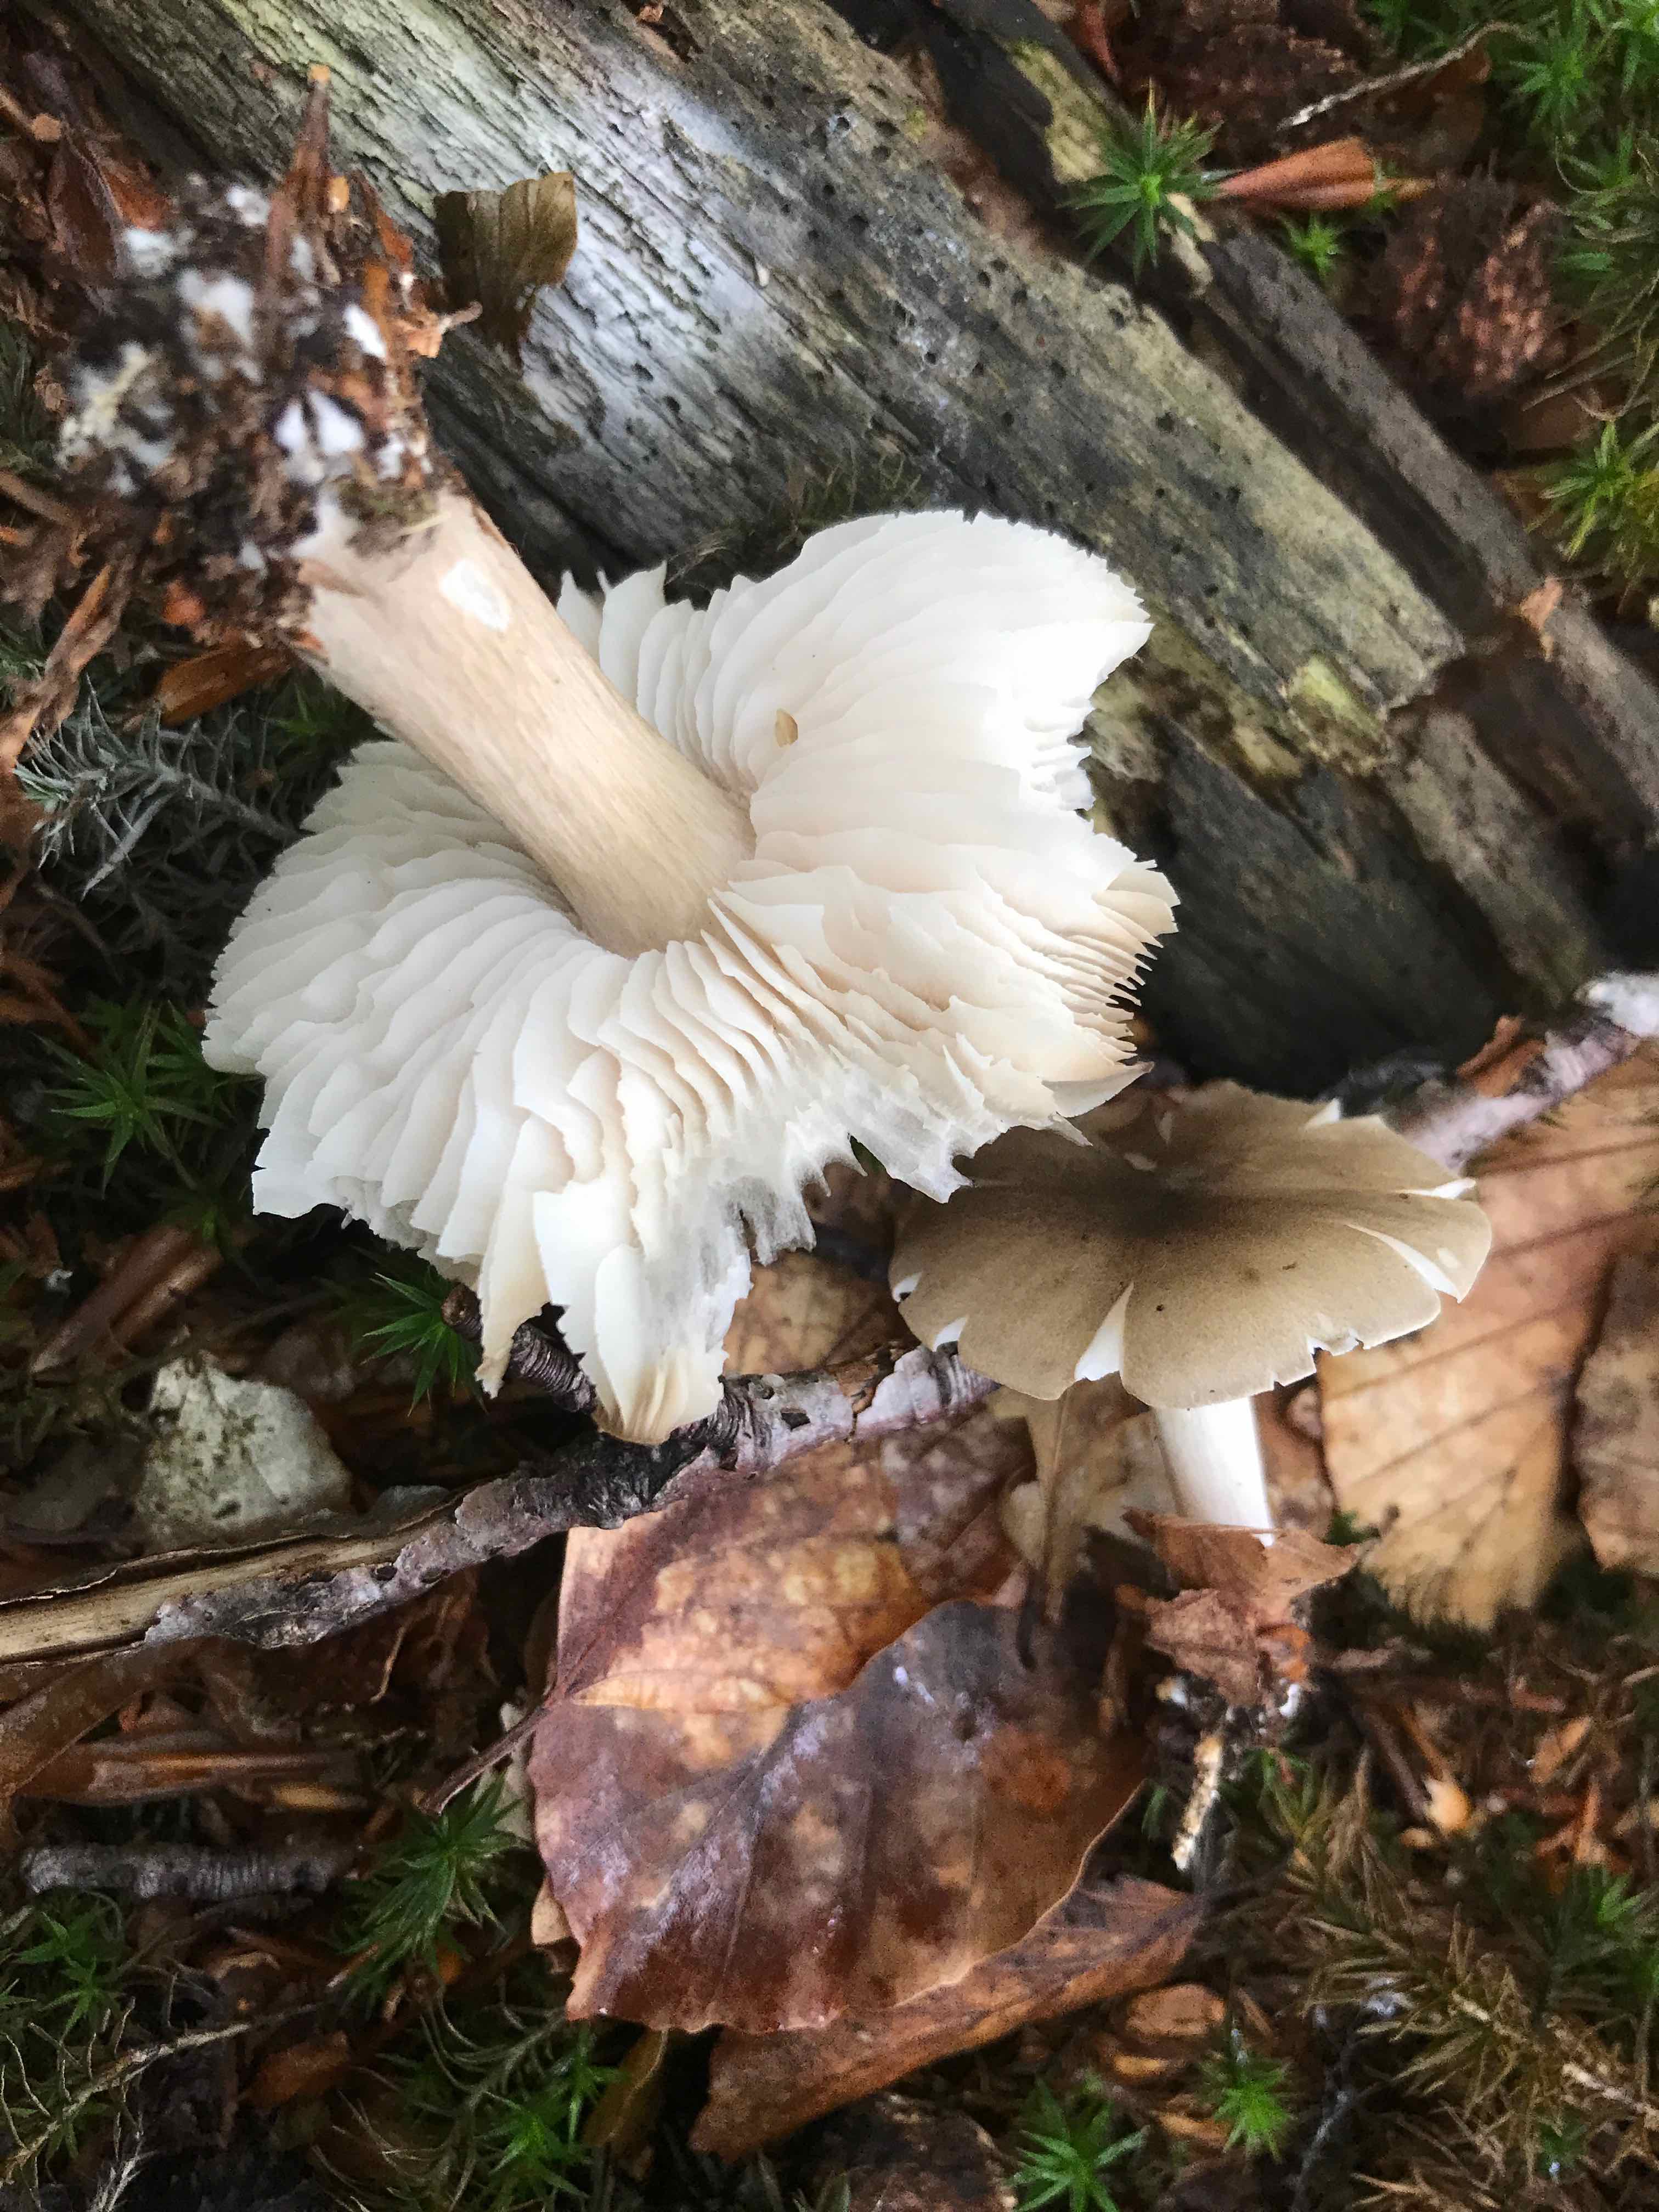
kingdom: Fungi
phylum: Basidiomycota
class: Agaricomycetes
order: Agaricales
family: Tricholomataceae
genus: Megacollybia
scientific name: Megacollybia platyphylla
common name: bredbladet væbnerhat
